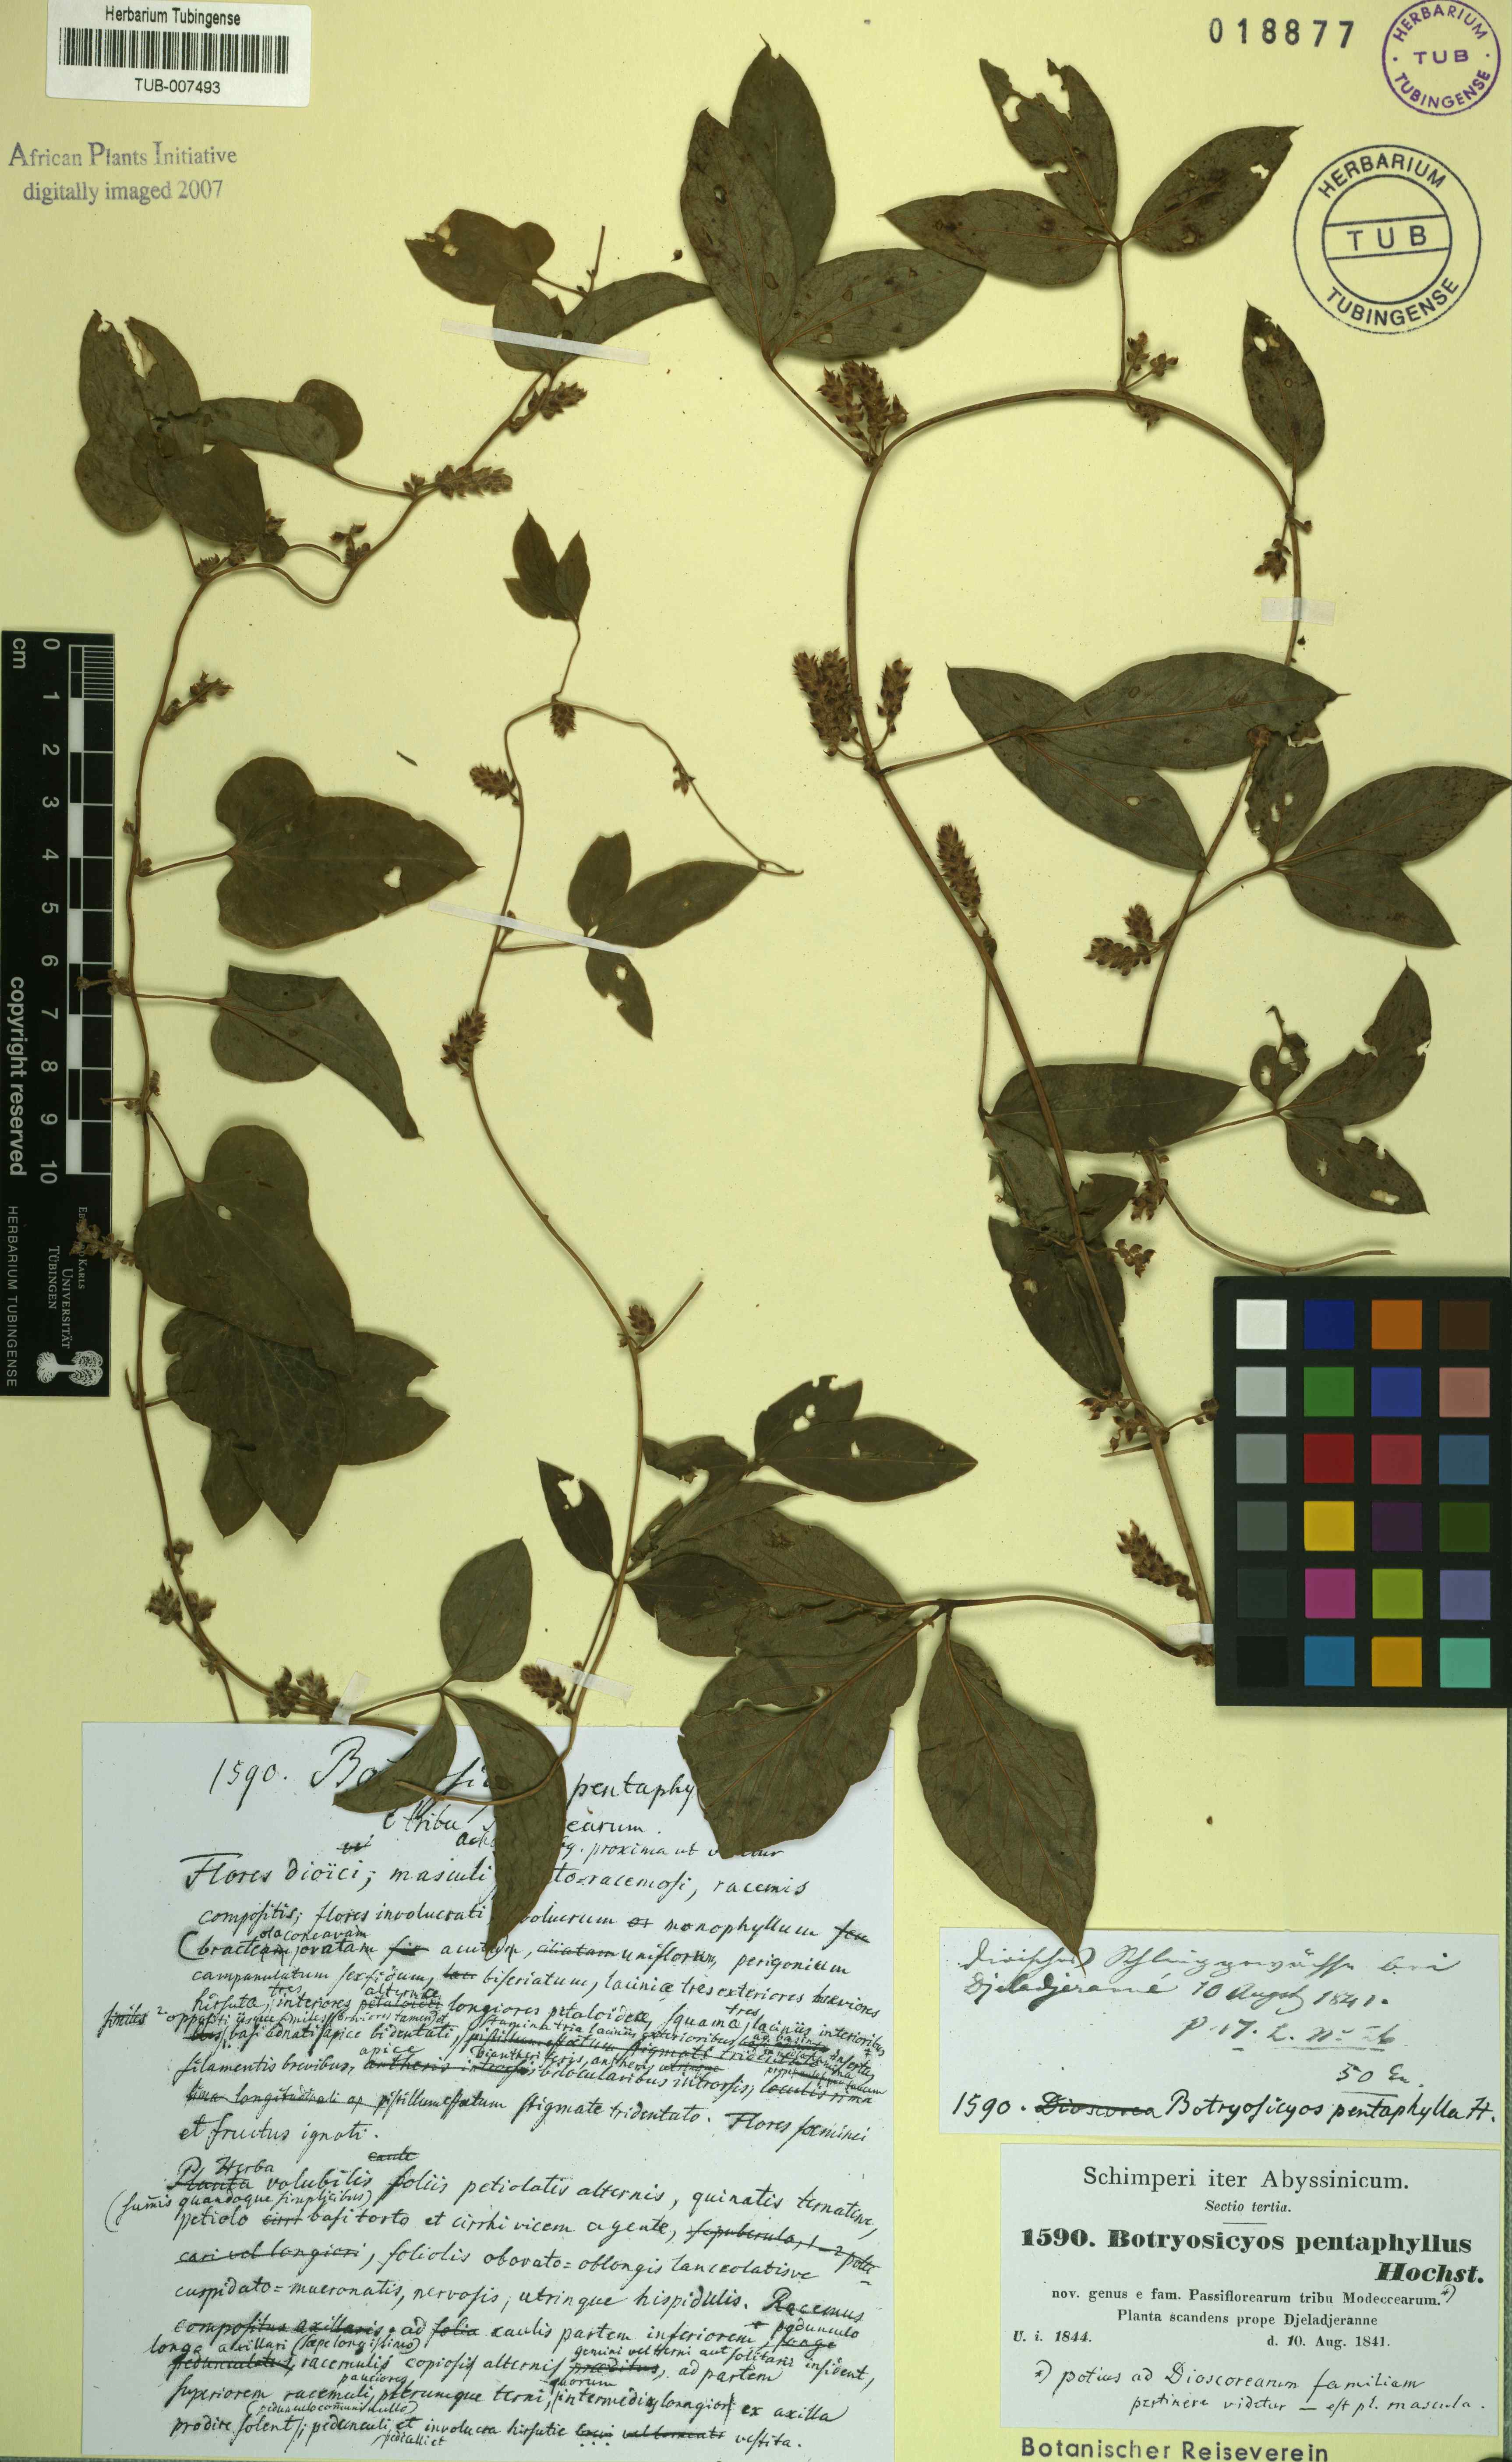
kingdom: Plantae
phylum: Tracheophyta
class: Liliopsida
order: Dioscoreales
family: Dioscoreaceae
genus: Dioscorea
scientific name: Dioscorea pentaphylla
